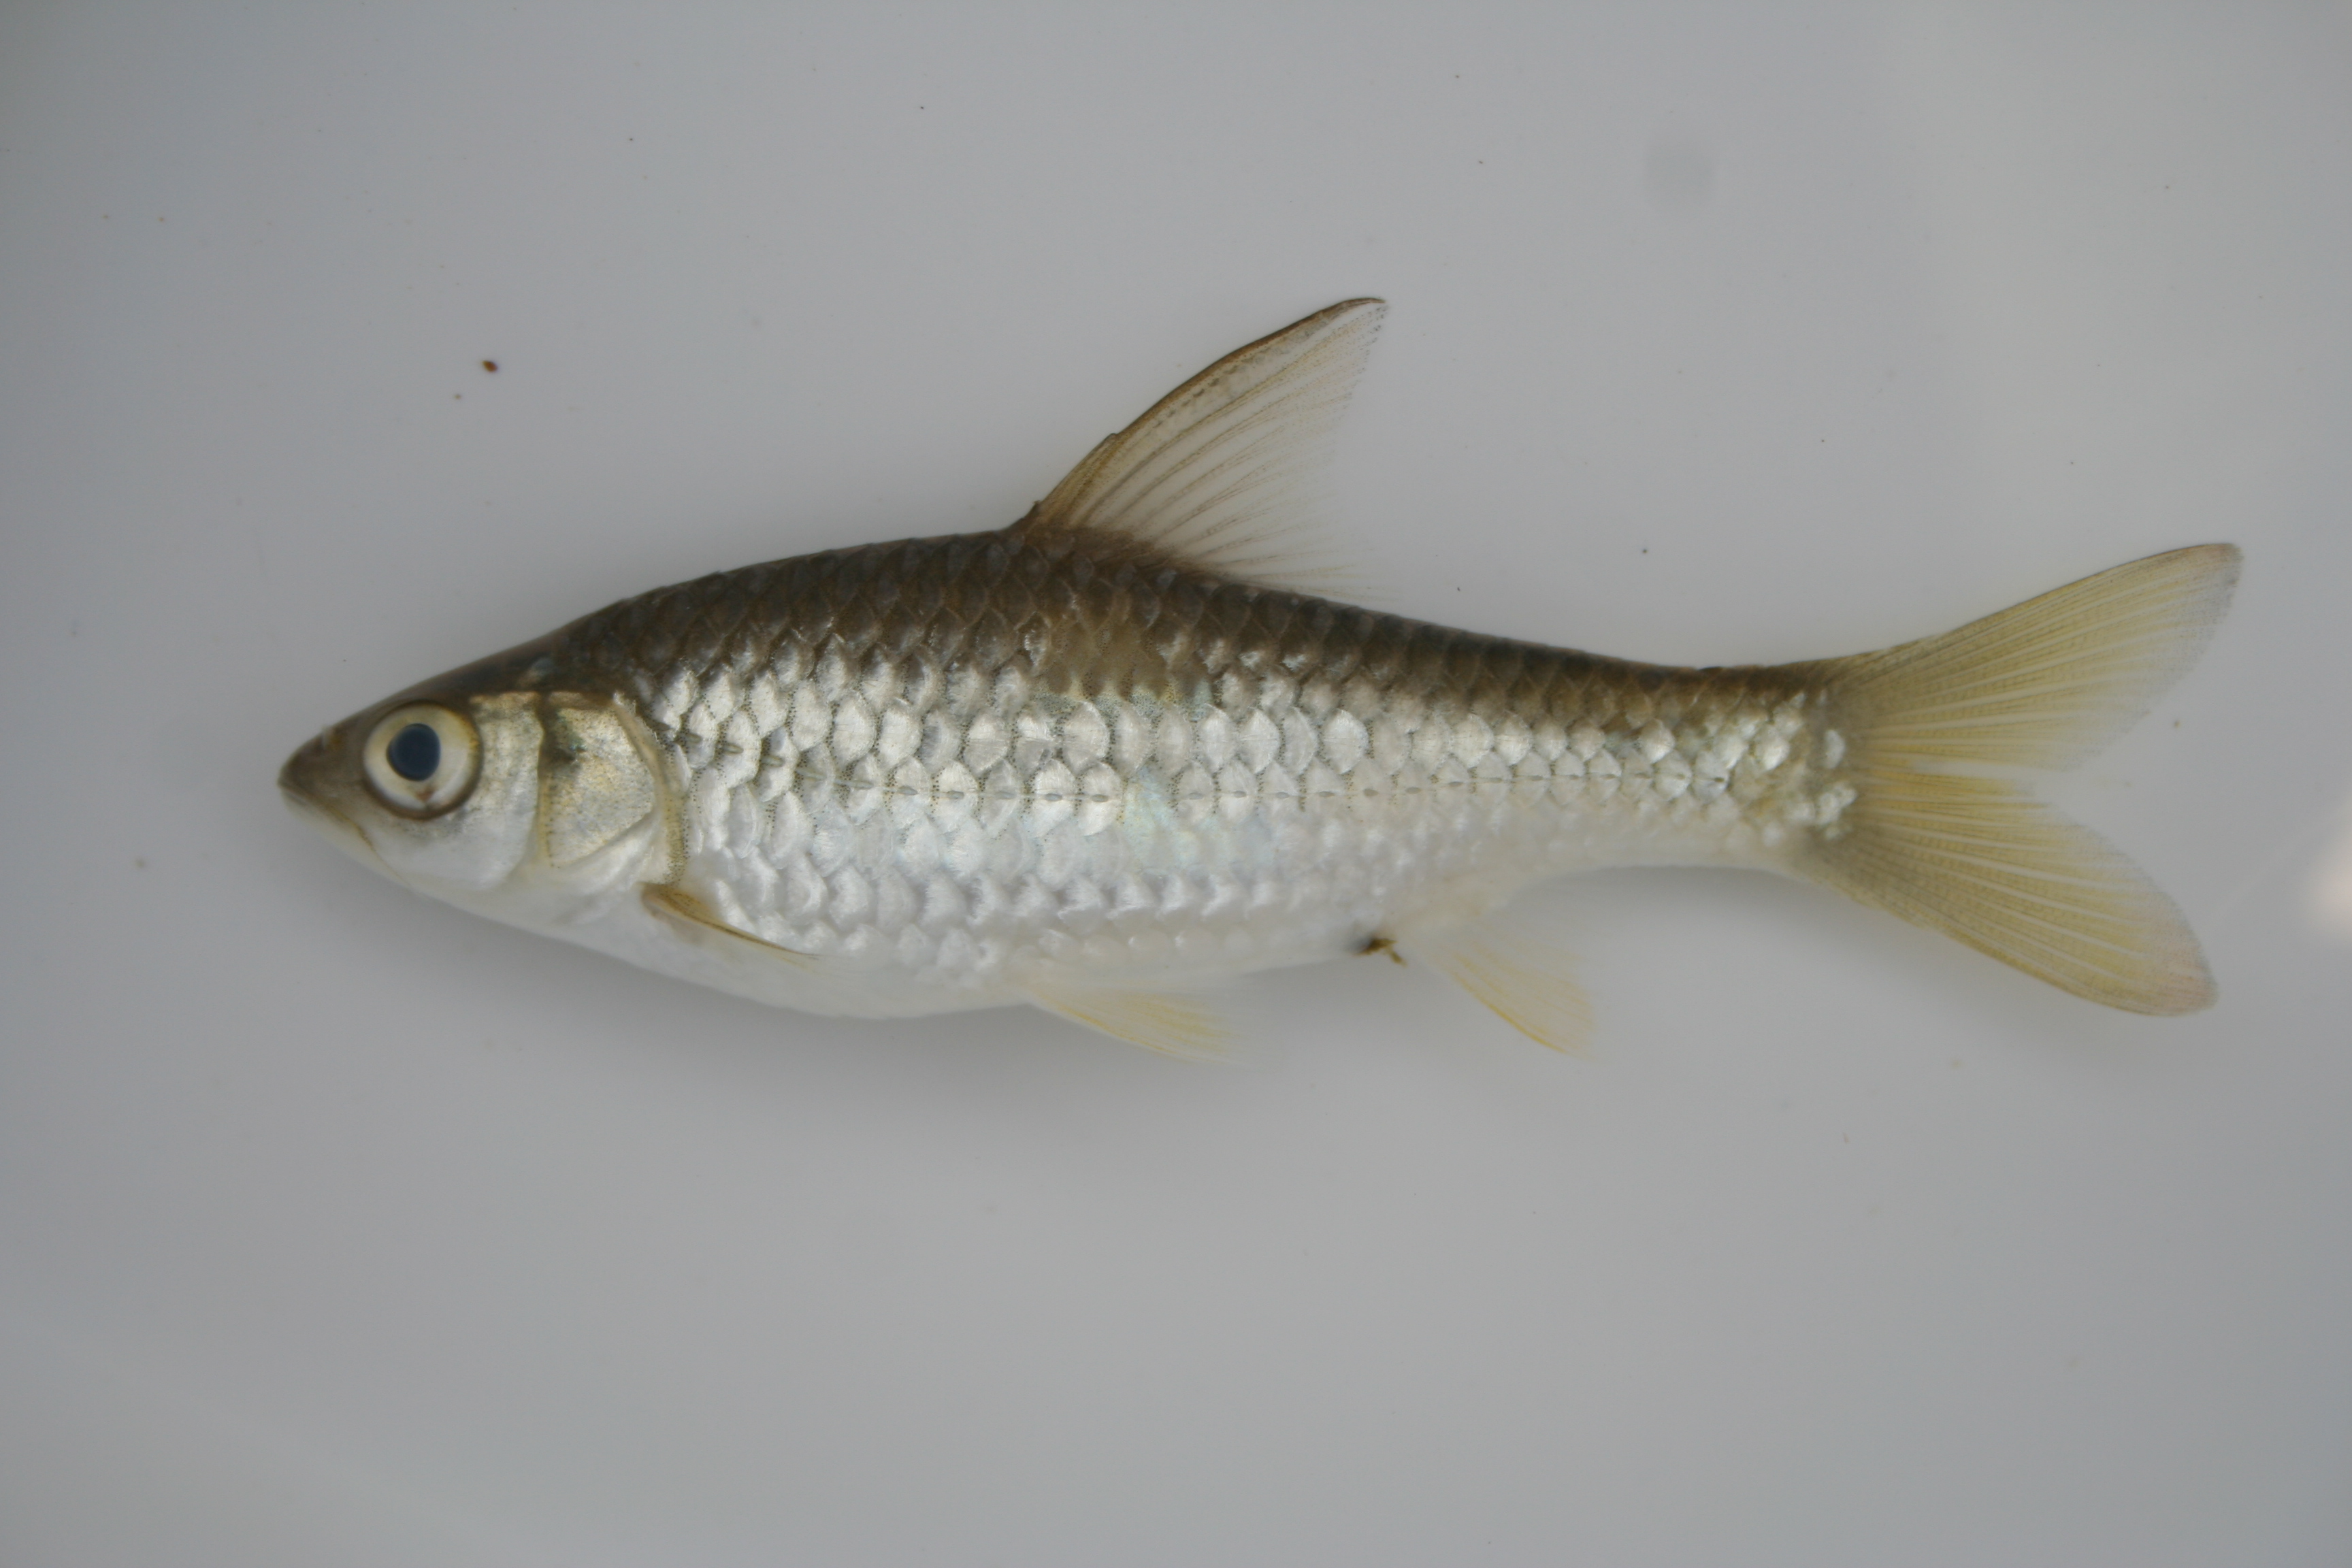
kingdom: Animalia
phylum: Chordata
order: Cypriniformes
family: Cyprinidae
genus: Barbus
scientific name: Barbus
